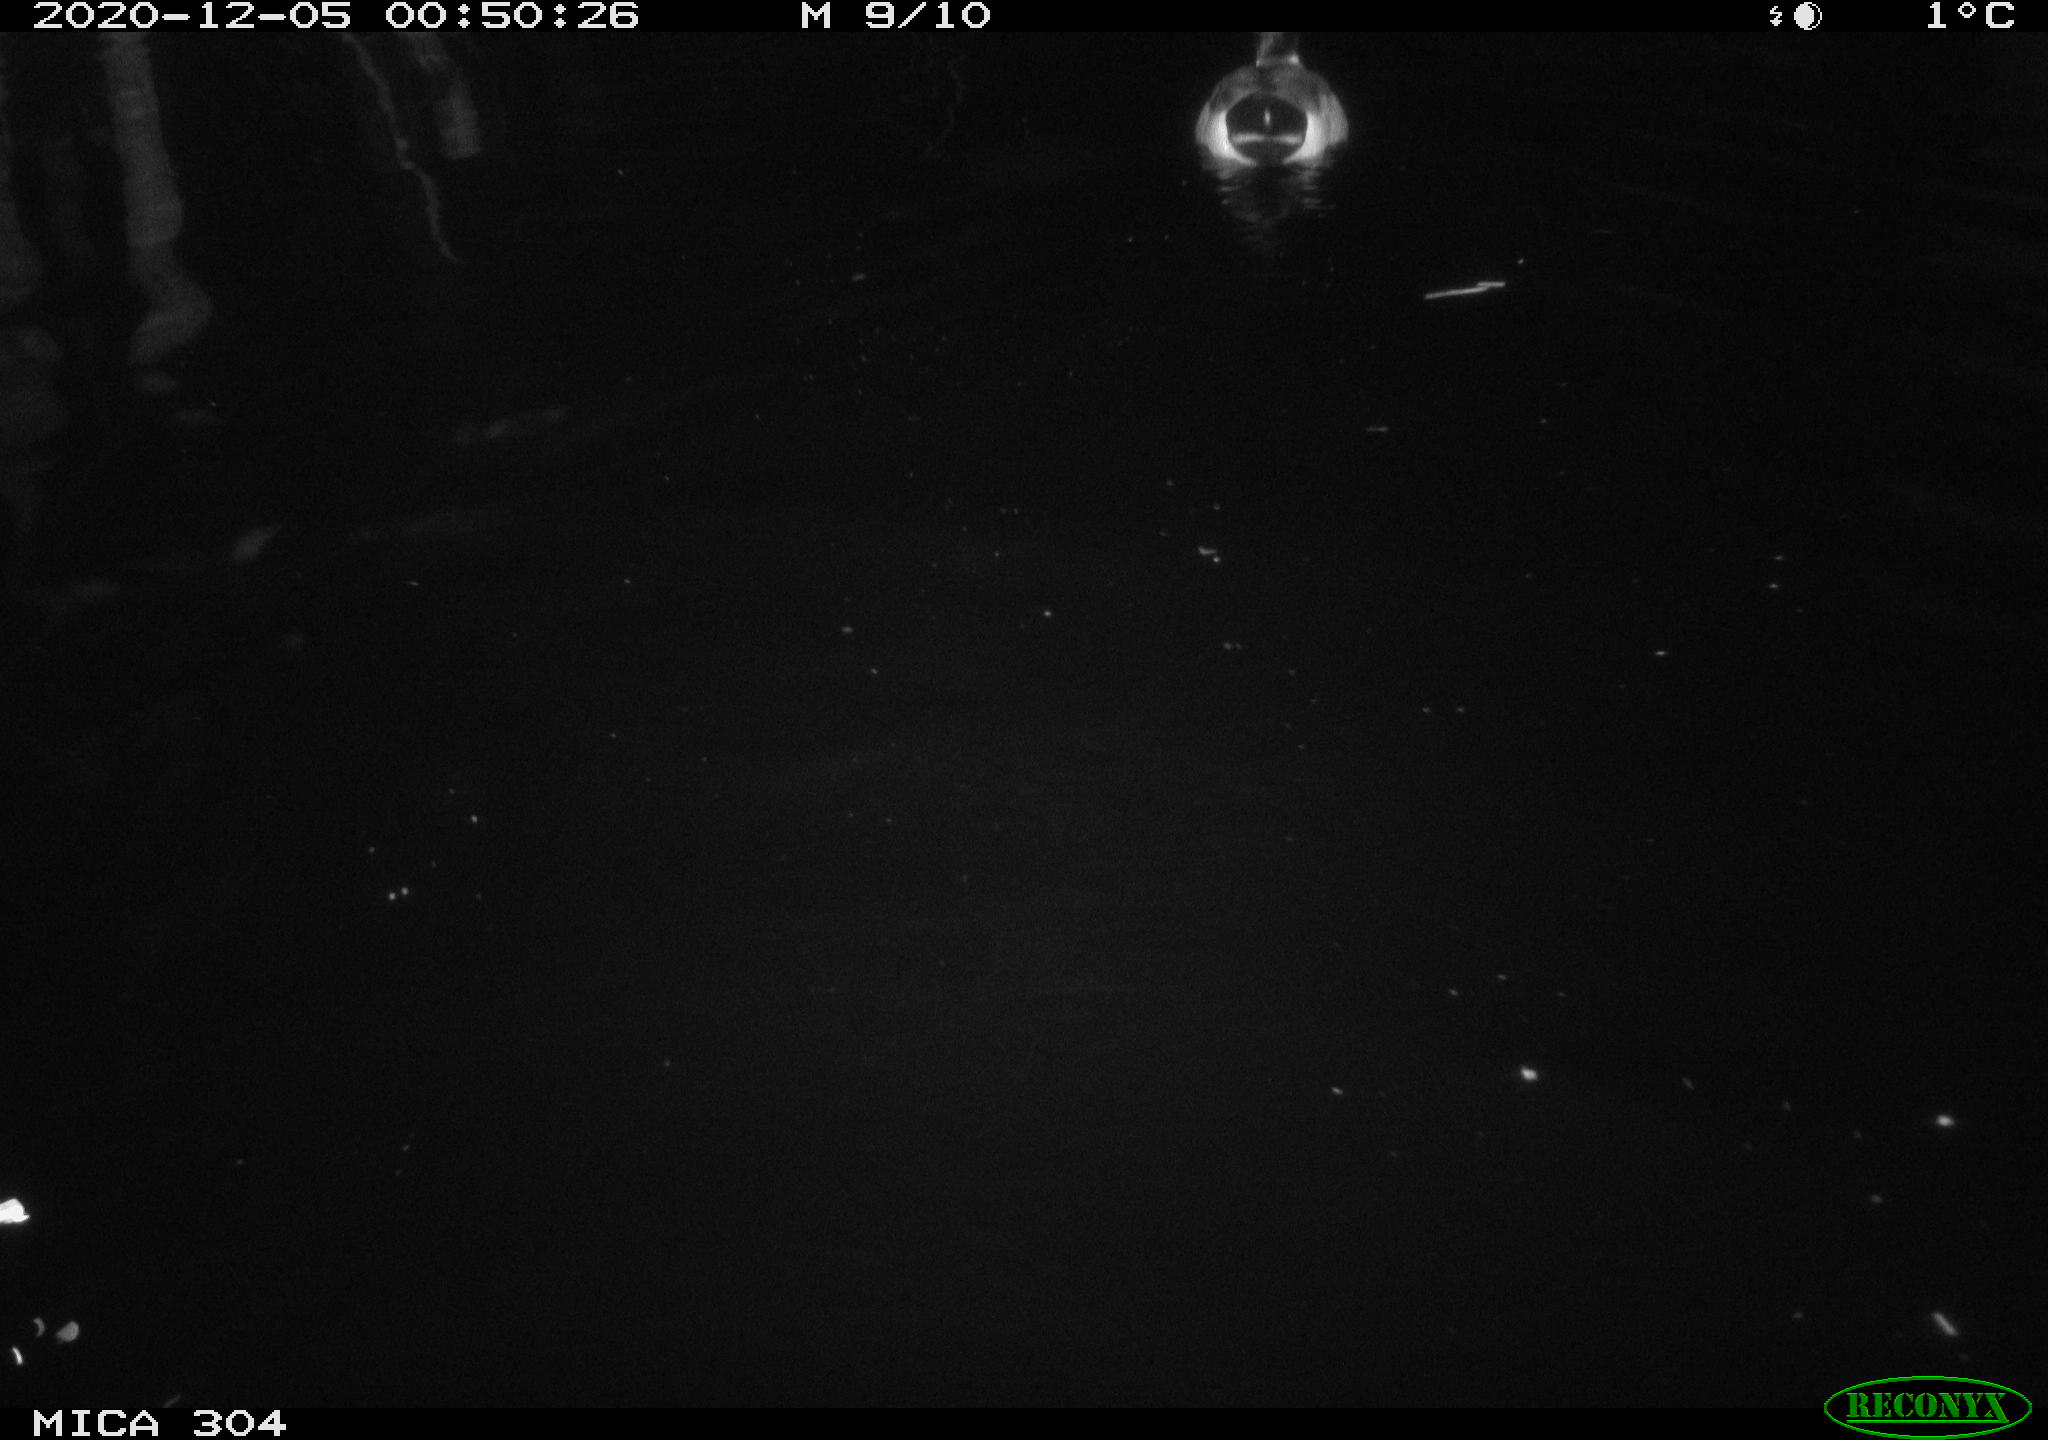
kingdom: Animalia
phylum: Chordata
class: Aves
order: Anseriformes
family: Anatidae
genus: Anas
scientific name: Anas platyrhynchos
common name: Mallard
